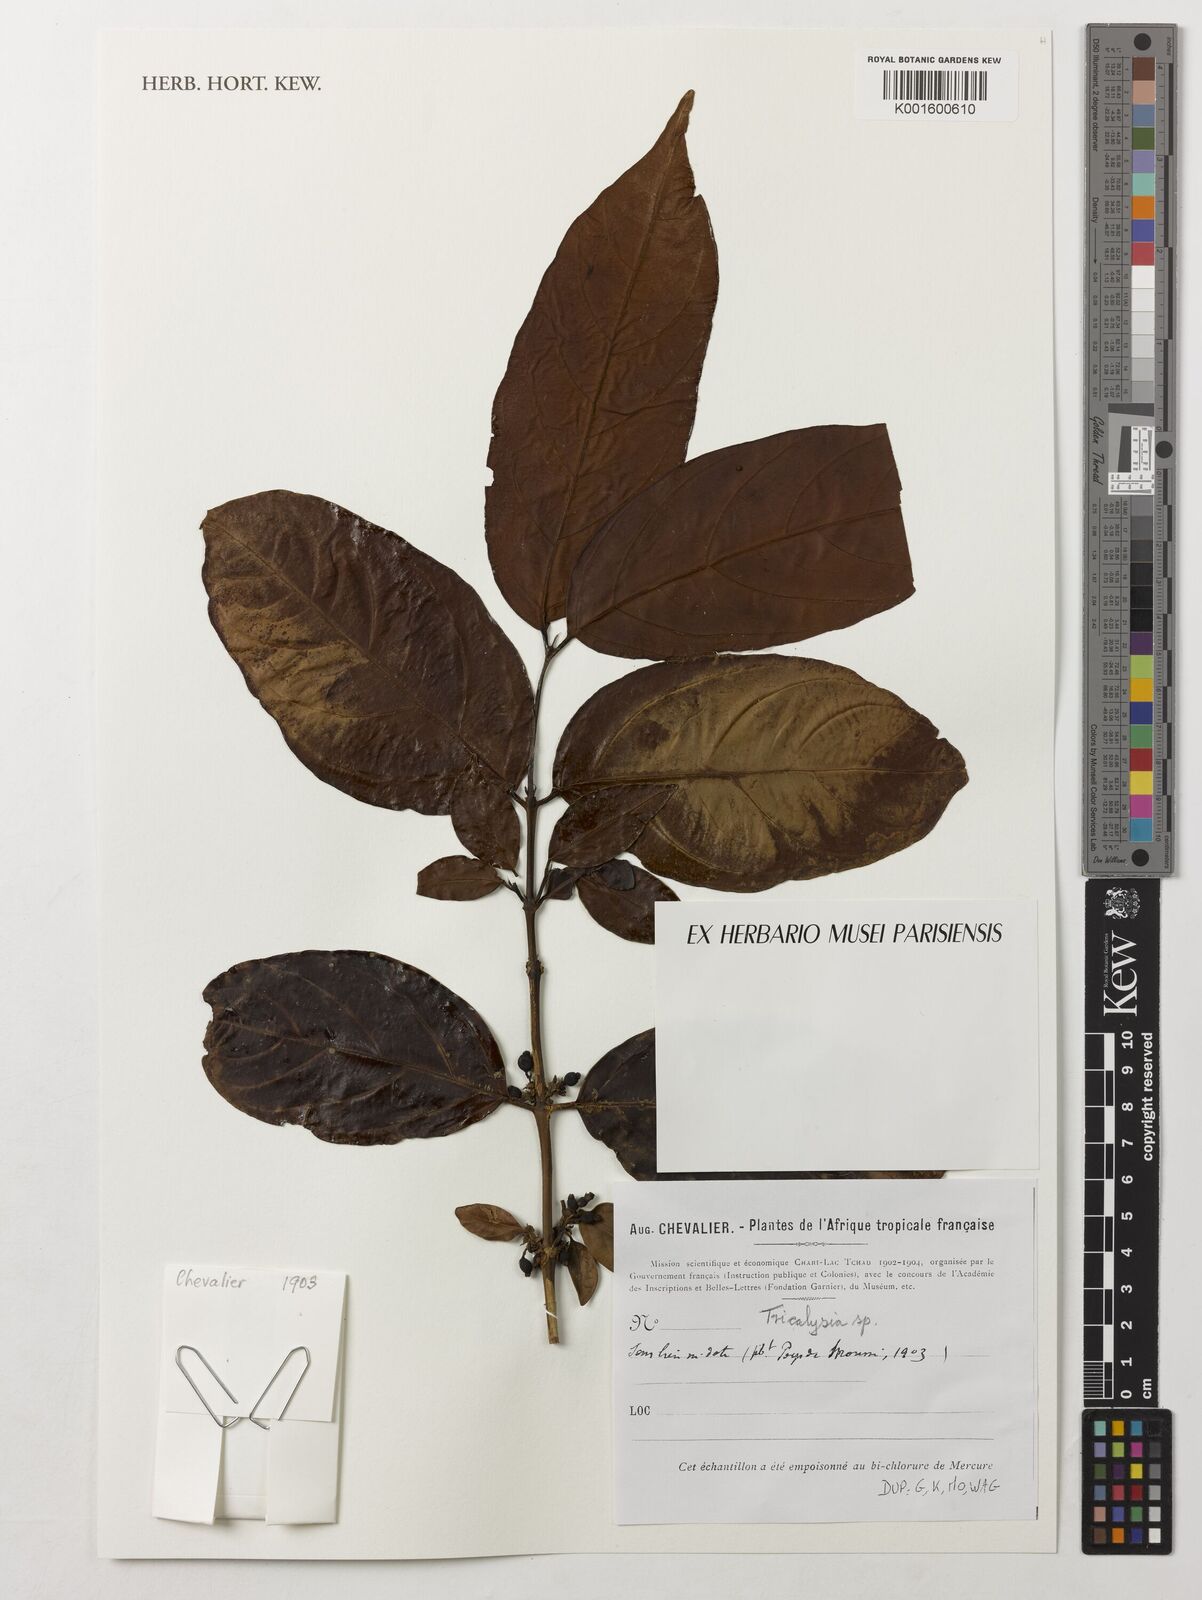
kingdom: Plantae
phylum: Tracheophyta
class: Magnoliopsida
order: Gentianales
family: Rubiaceae
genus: Tricalysia
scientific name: Tricalysia
